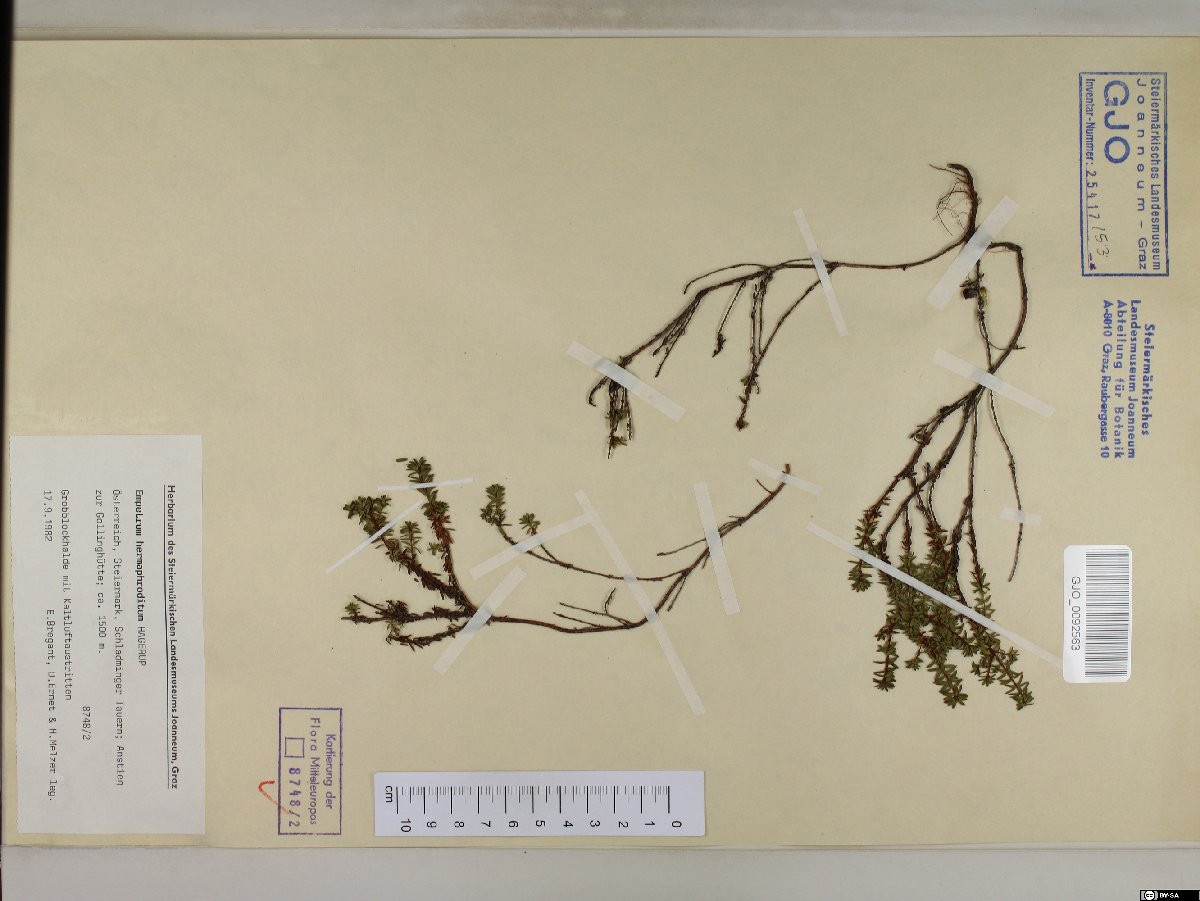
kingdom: Plantae
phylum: Tracheophyta
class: Magnoliopsida
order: Ericales
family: Ericaceae
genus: Empetrum
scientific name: Empetrum hermaphroditum
